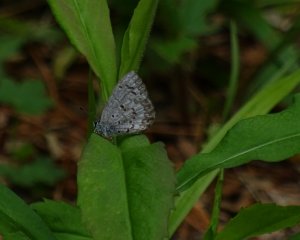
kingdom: Animalia
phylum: Arthropoda
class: Insecta
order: Lepidoptera
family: Lycaenidae
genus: Celastrina
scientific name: Celastrina lucia
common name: Northern Spring Azure
